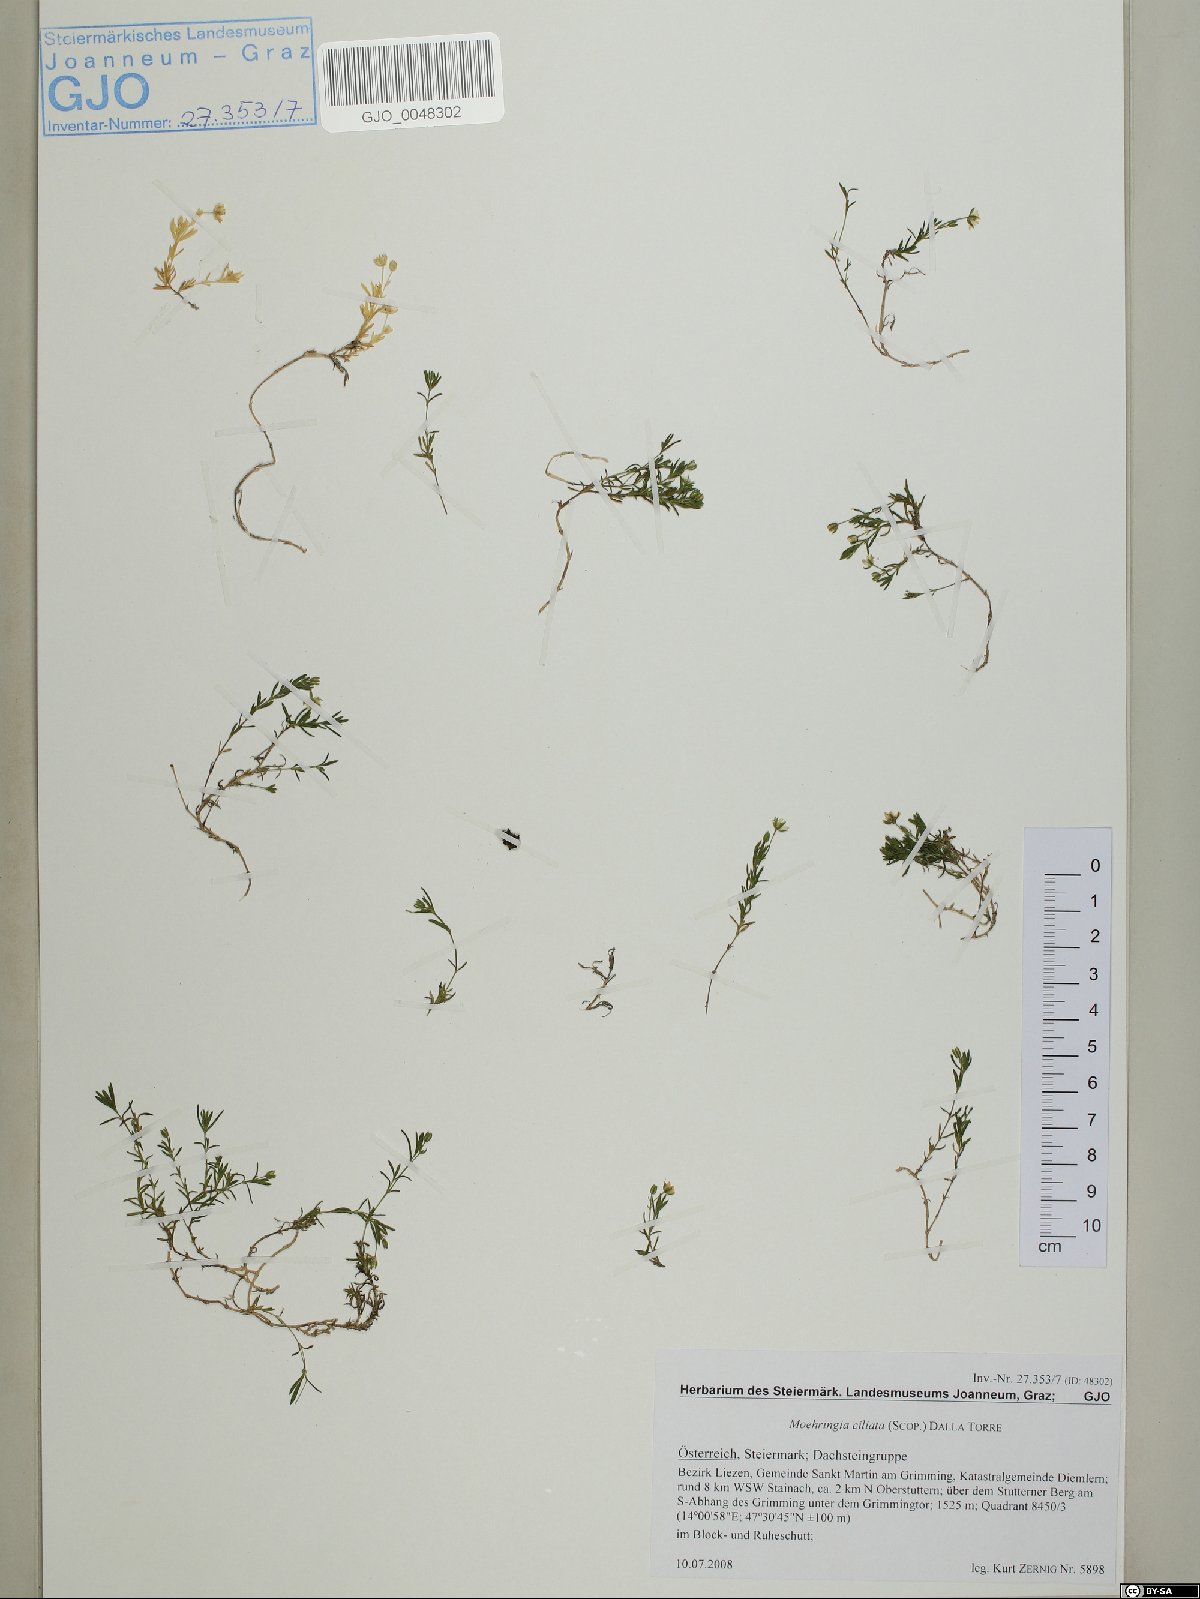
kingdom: Plantae
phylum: Tracheophyta
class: Magnoliopsida
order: Caryophyllales
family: Caryophyllaceae
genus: Moehringia
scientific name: Moehringia ciliata
